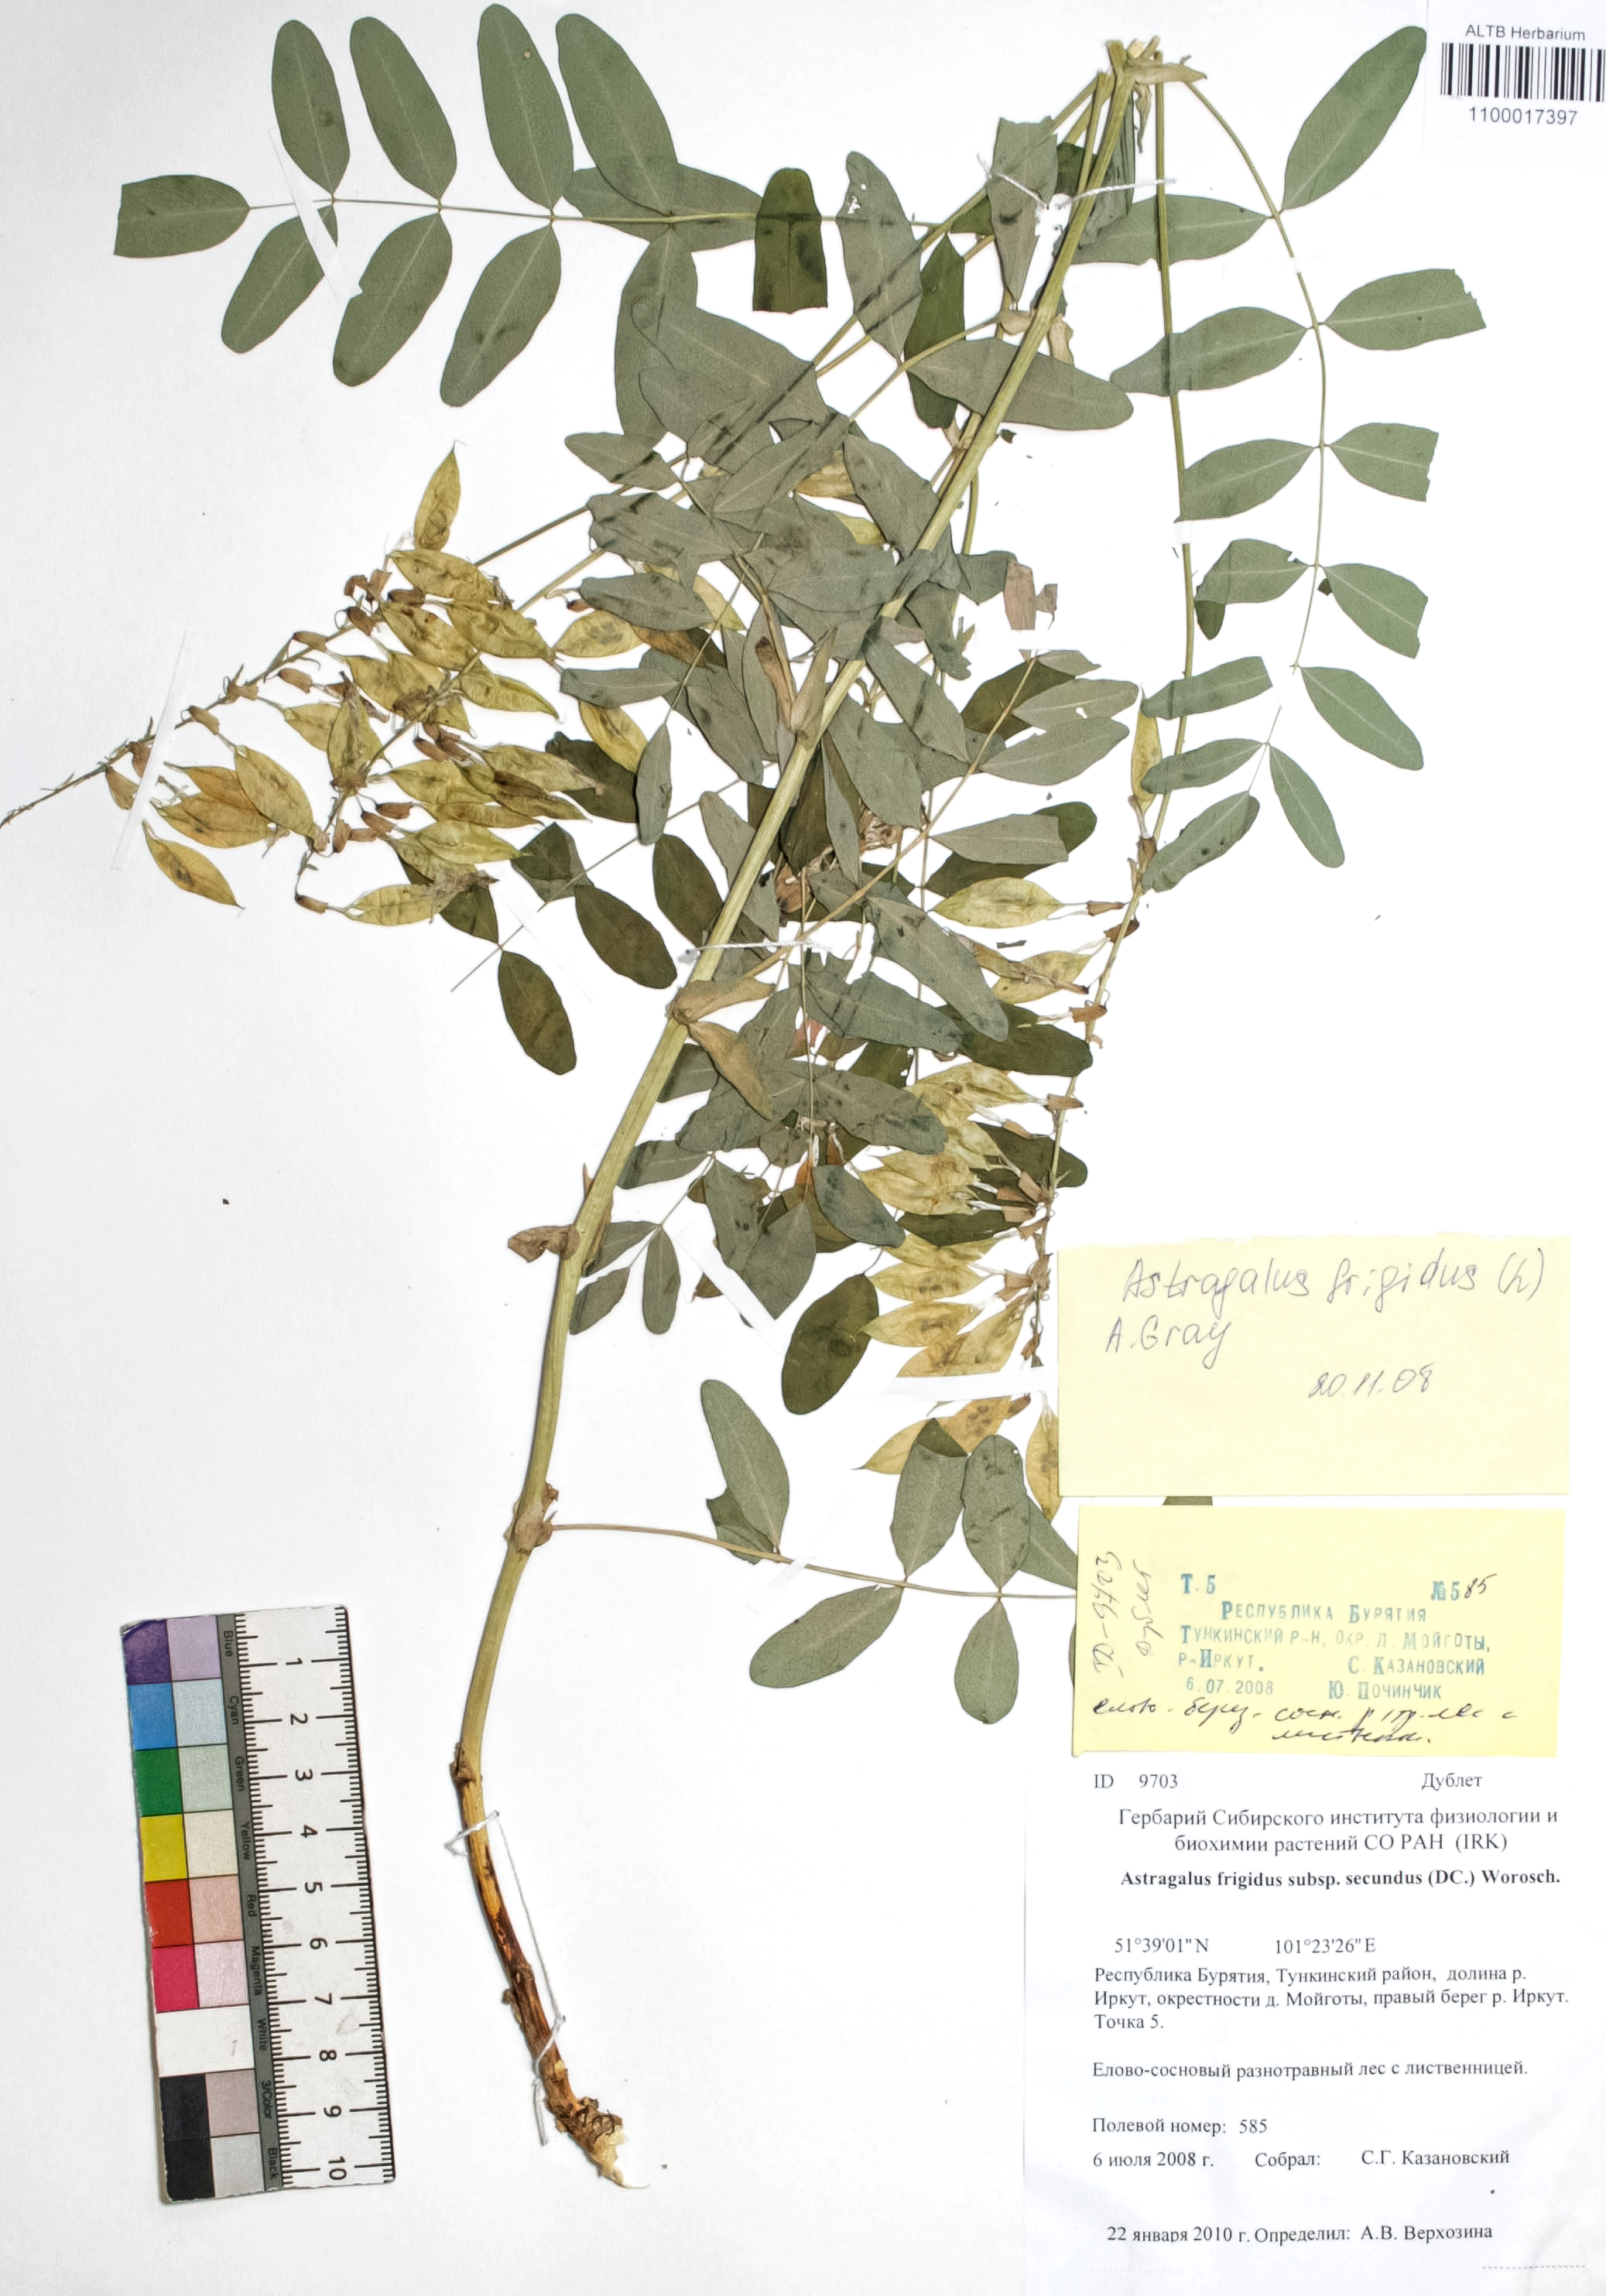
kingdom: Plantae
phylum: Tracheophyta
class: Magnoliopsida
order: Fabales
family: Fabaceae
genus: Astragalus
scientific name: Astragalus frigidus
